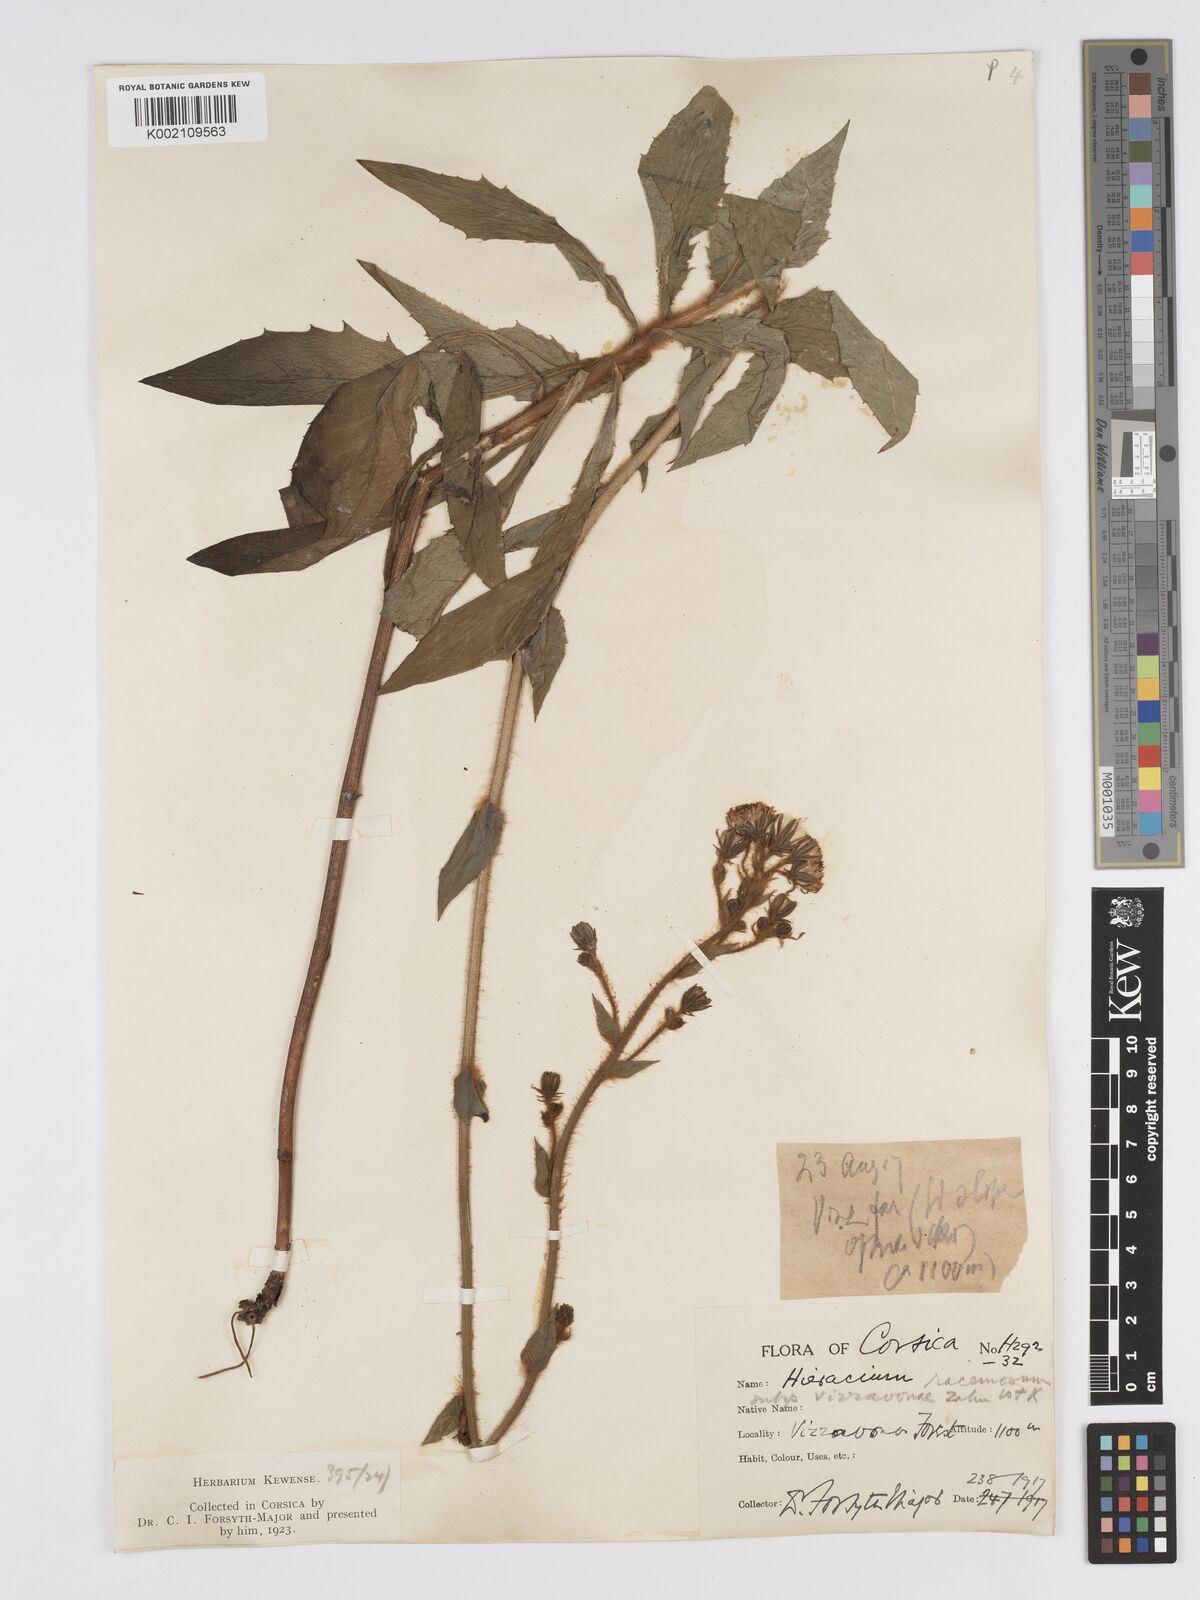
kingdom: Plantae
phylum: Tracheophyta
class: Magnoliopsida
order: Asterales
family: Asteraceae
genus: Hieracium
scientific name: Hieracium racemosum
